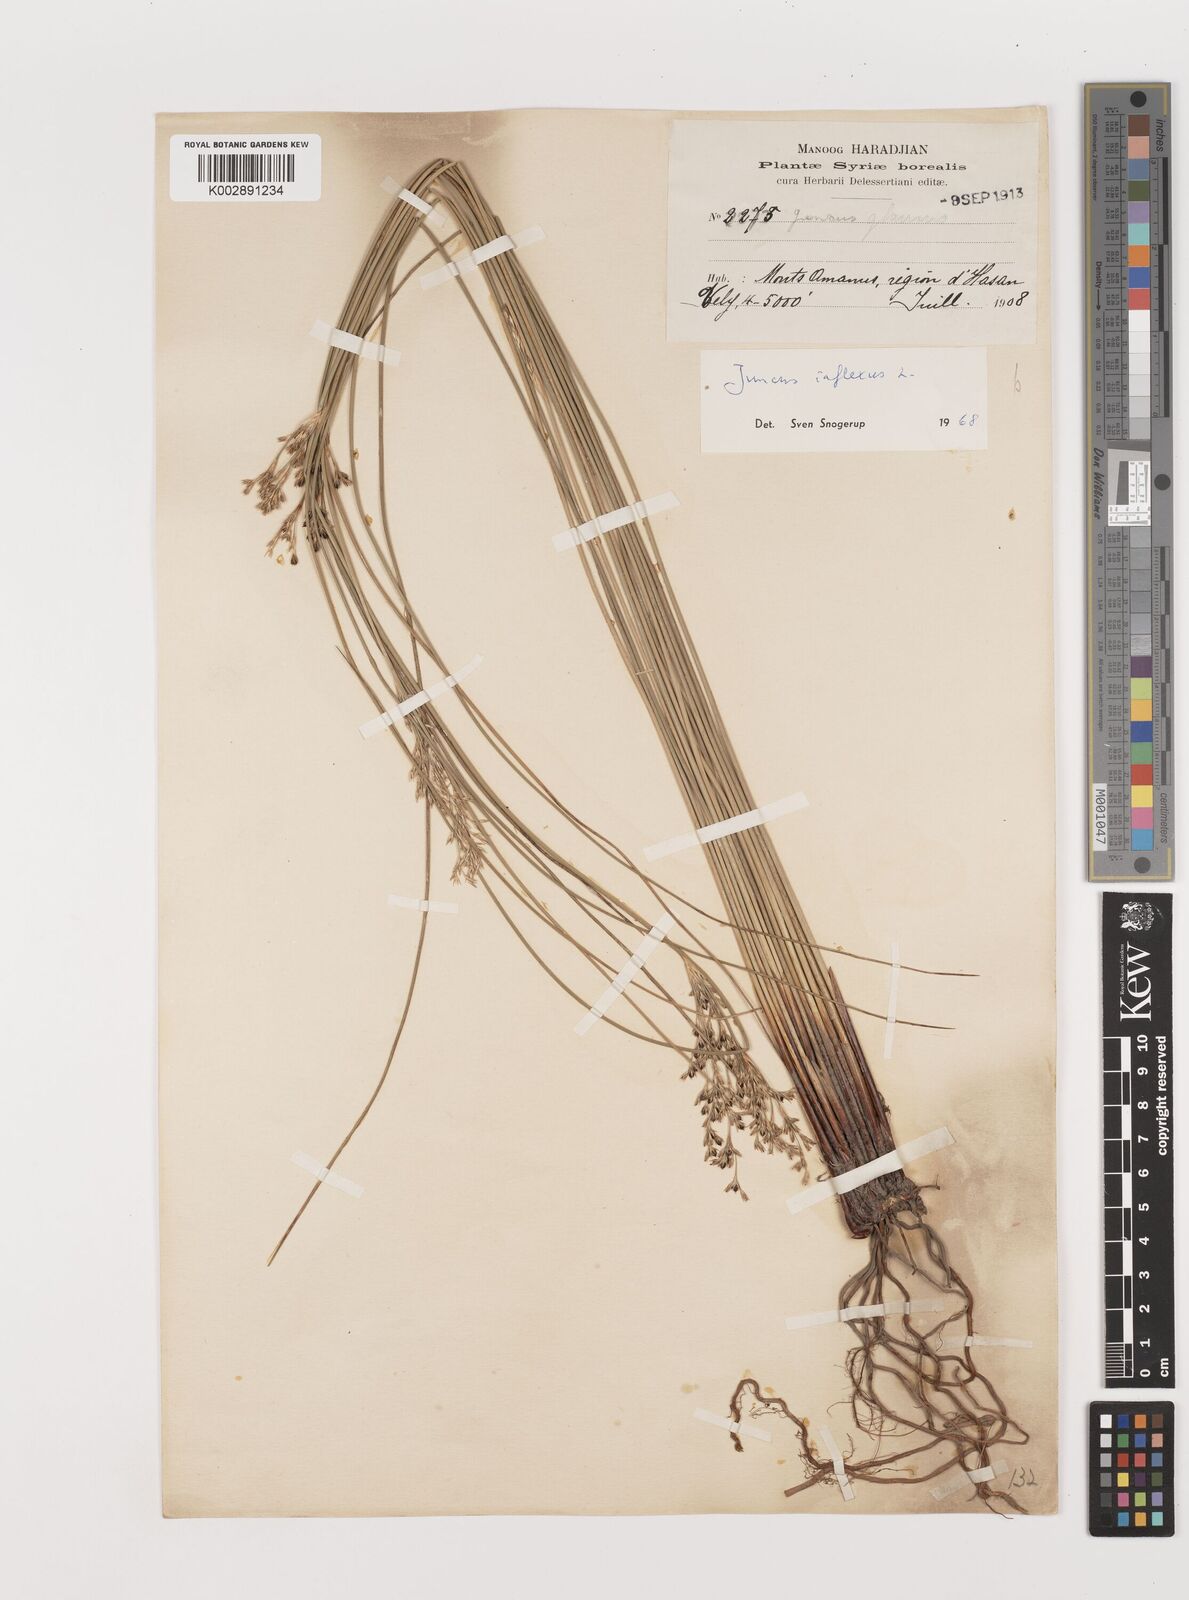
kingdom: Plantae
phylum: Tracheophyta
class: Liliopsida
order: Poales
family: Juncaceae
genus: Juncus
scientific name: Juncus inflexus
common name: Hard rush
